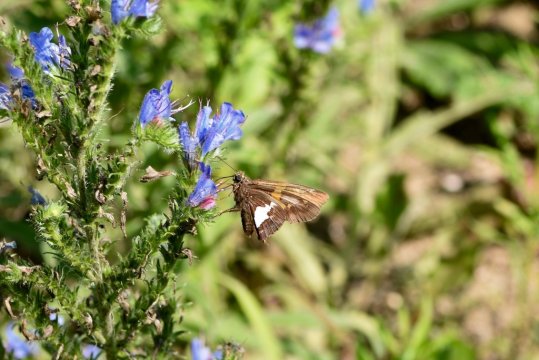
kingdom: Animalia
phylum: Arthropoda
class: Insecta
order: Lepidoptera
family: Hesperiidae
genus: Epargyreus
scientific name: Epargyreus clarus
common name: Silver-spotted Skipper
